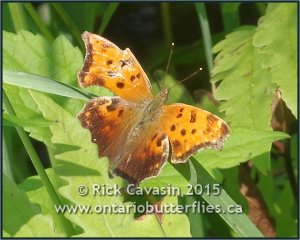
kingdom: Animalia
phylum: Arthropoda
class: Insecta
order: Lepidoptera
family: Nymphalidae
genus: Polygonia
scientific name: Polygonia comma
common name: Eastern Comma
